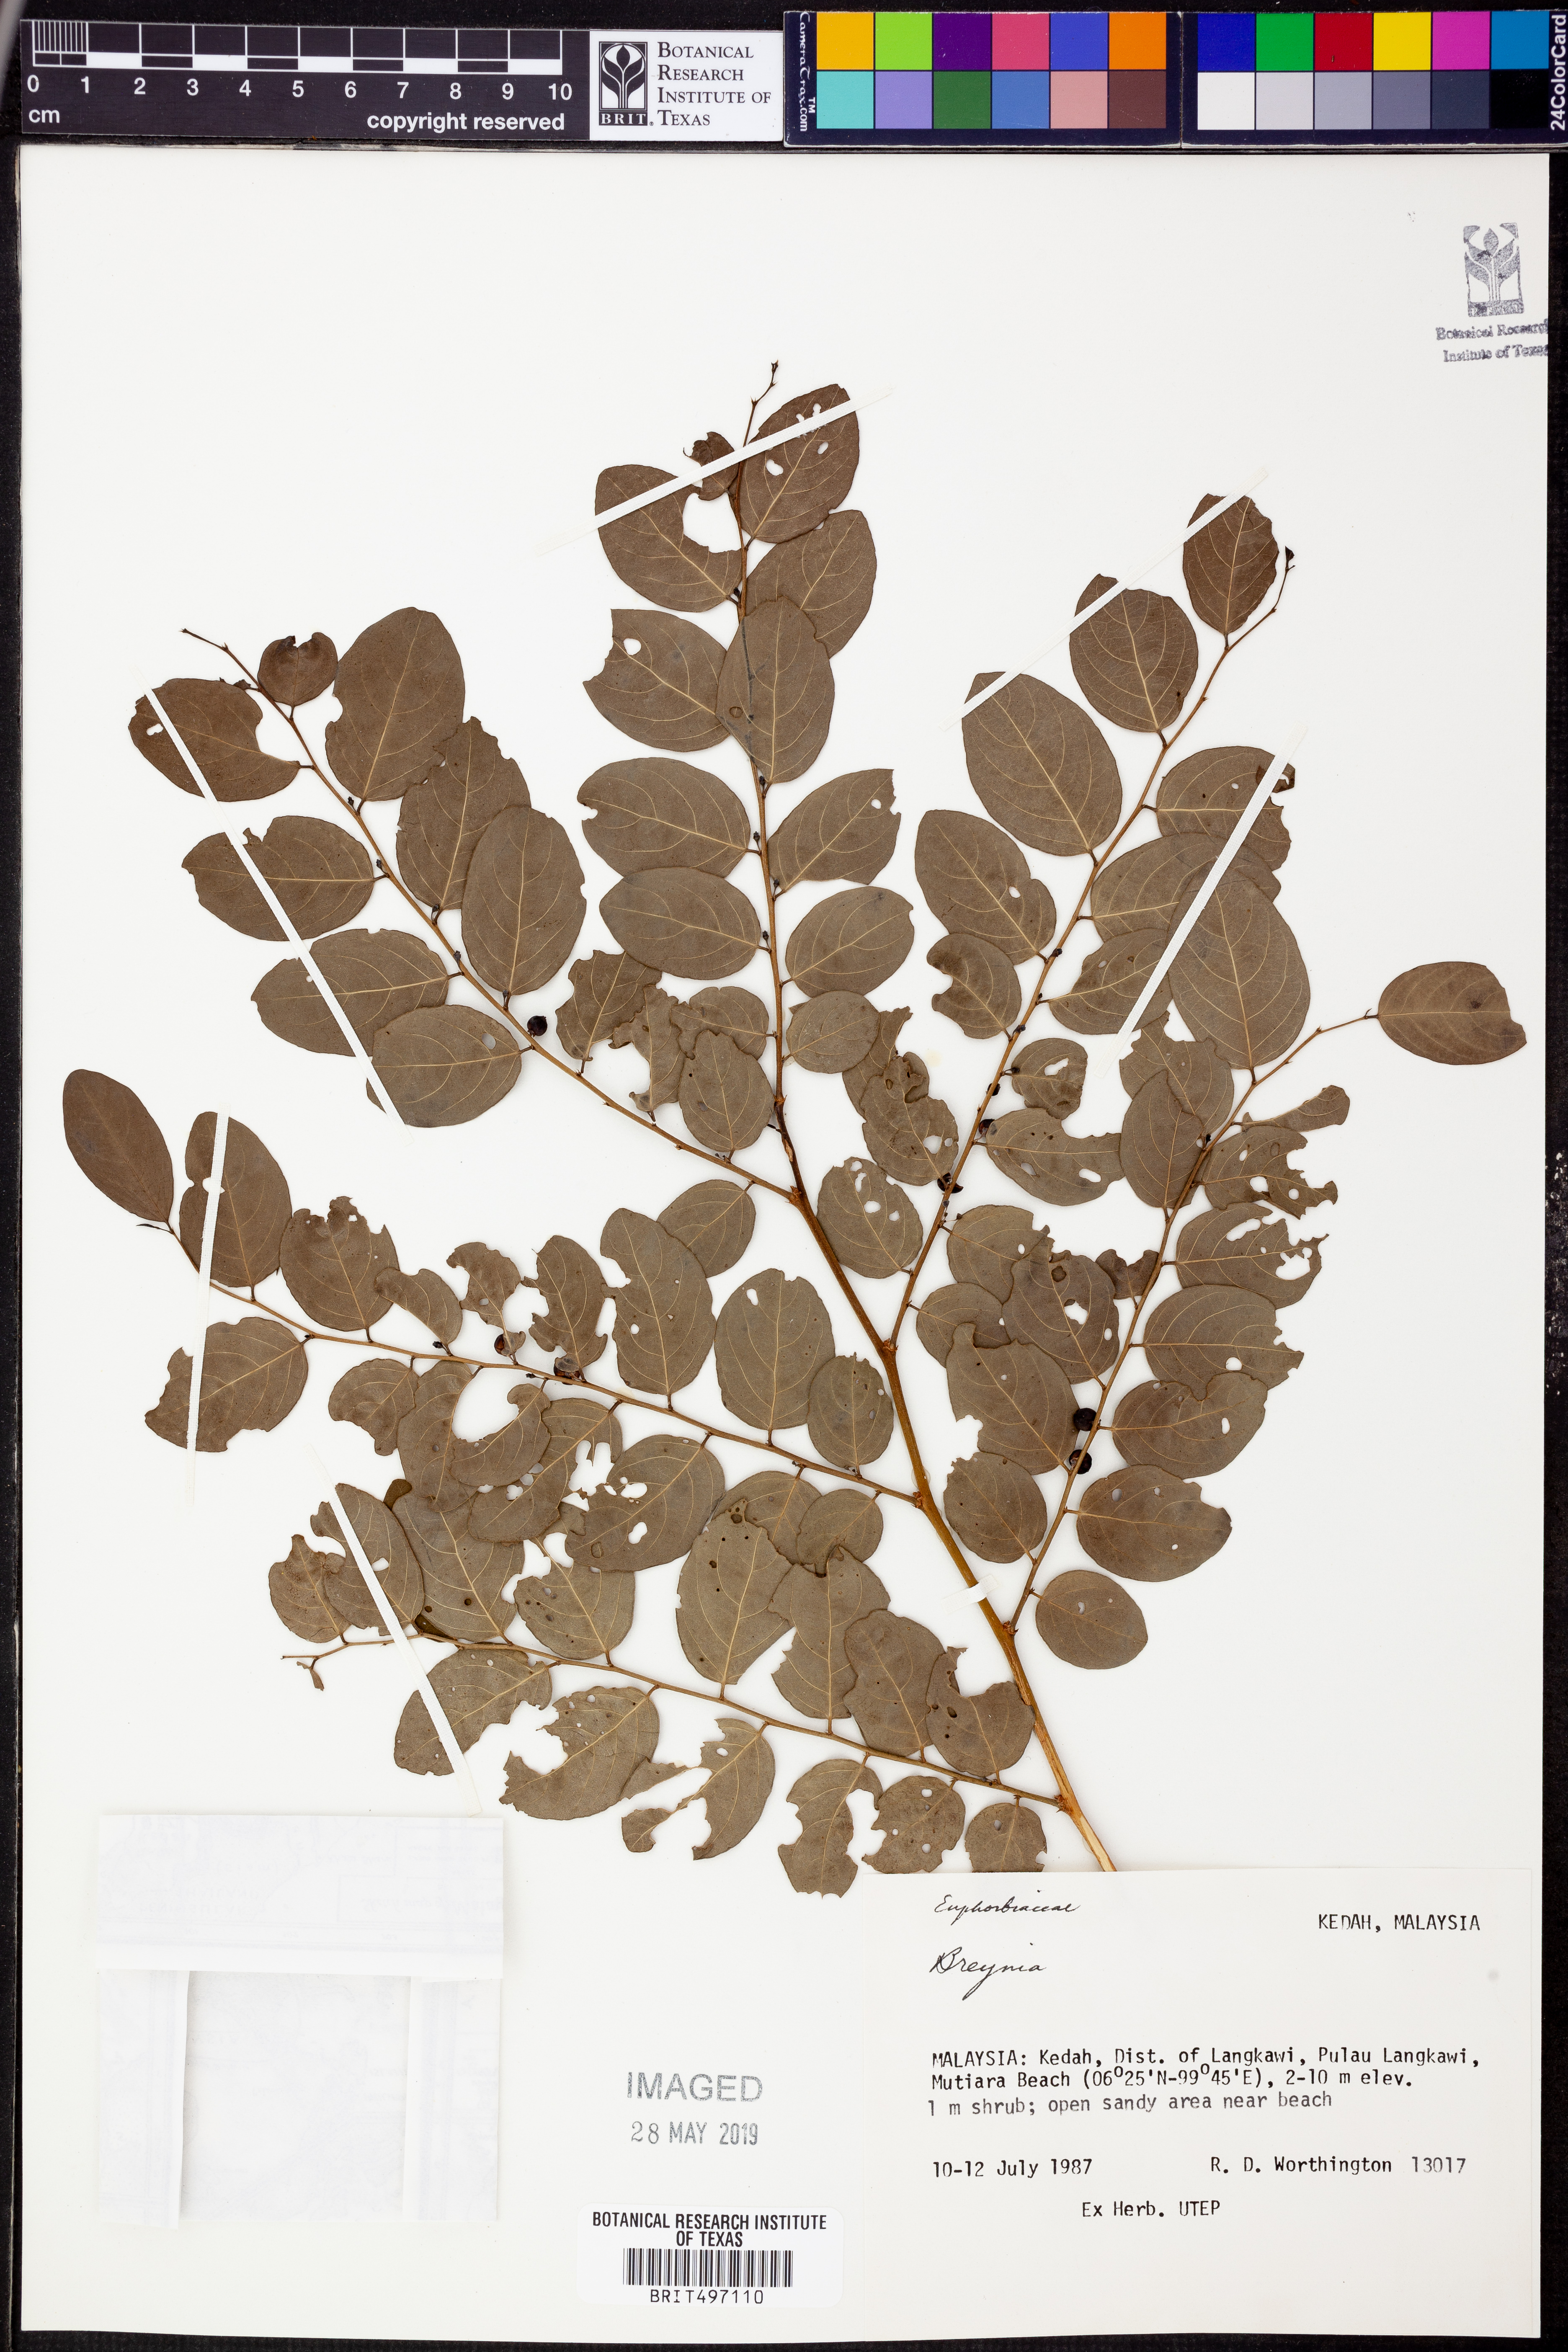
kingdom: Plantae
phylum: Tracheophyta
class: Magnoliopsida
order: Malpighiales
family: Phyllanthaceae
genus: Breynia
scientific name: Breynia
